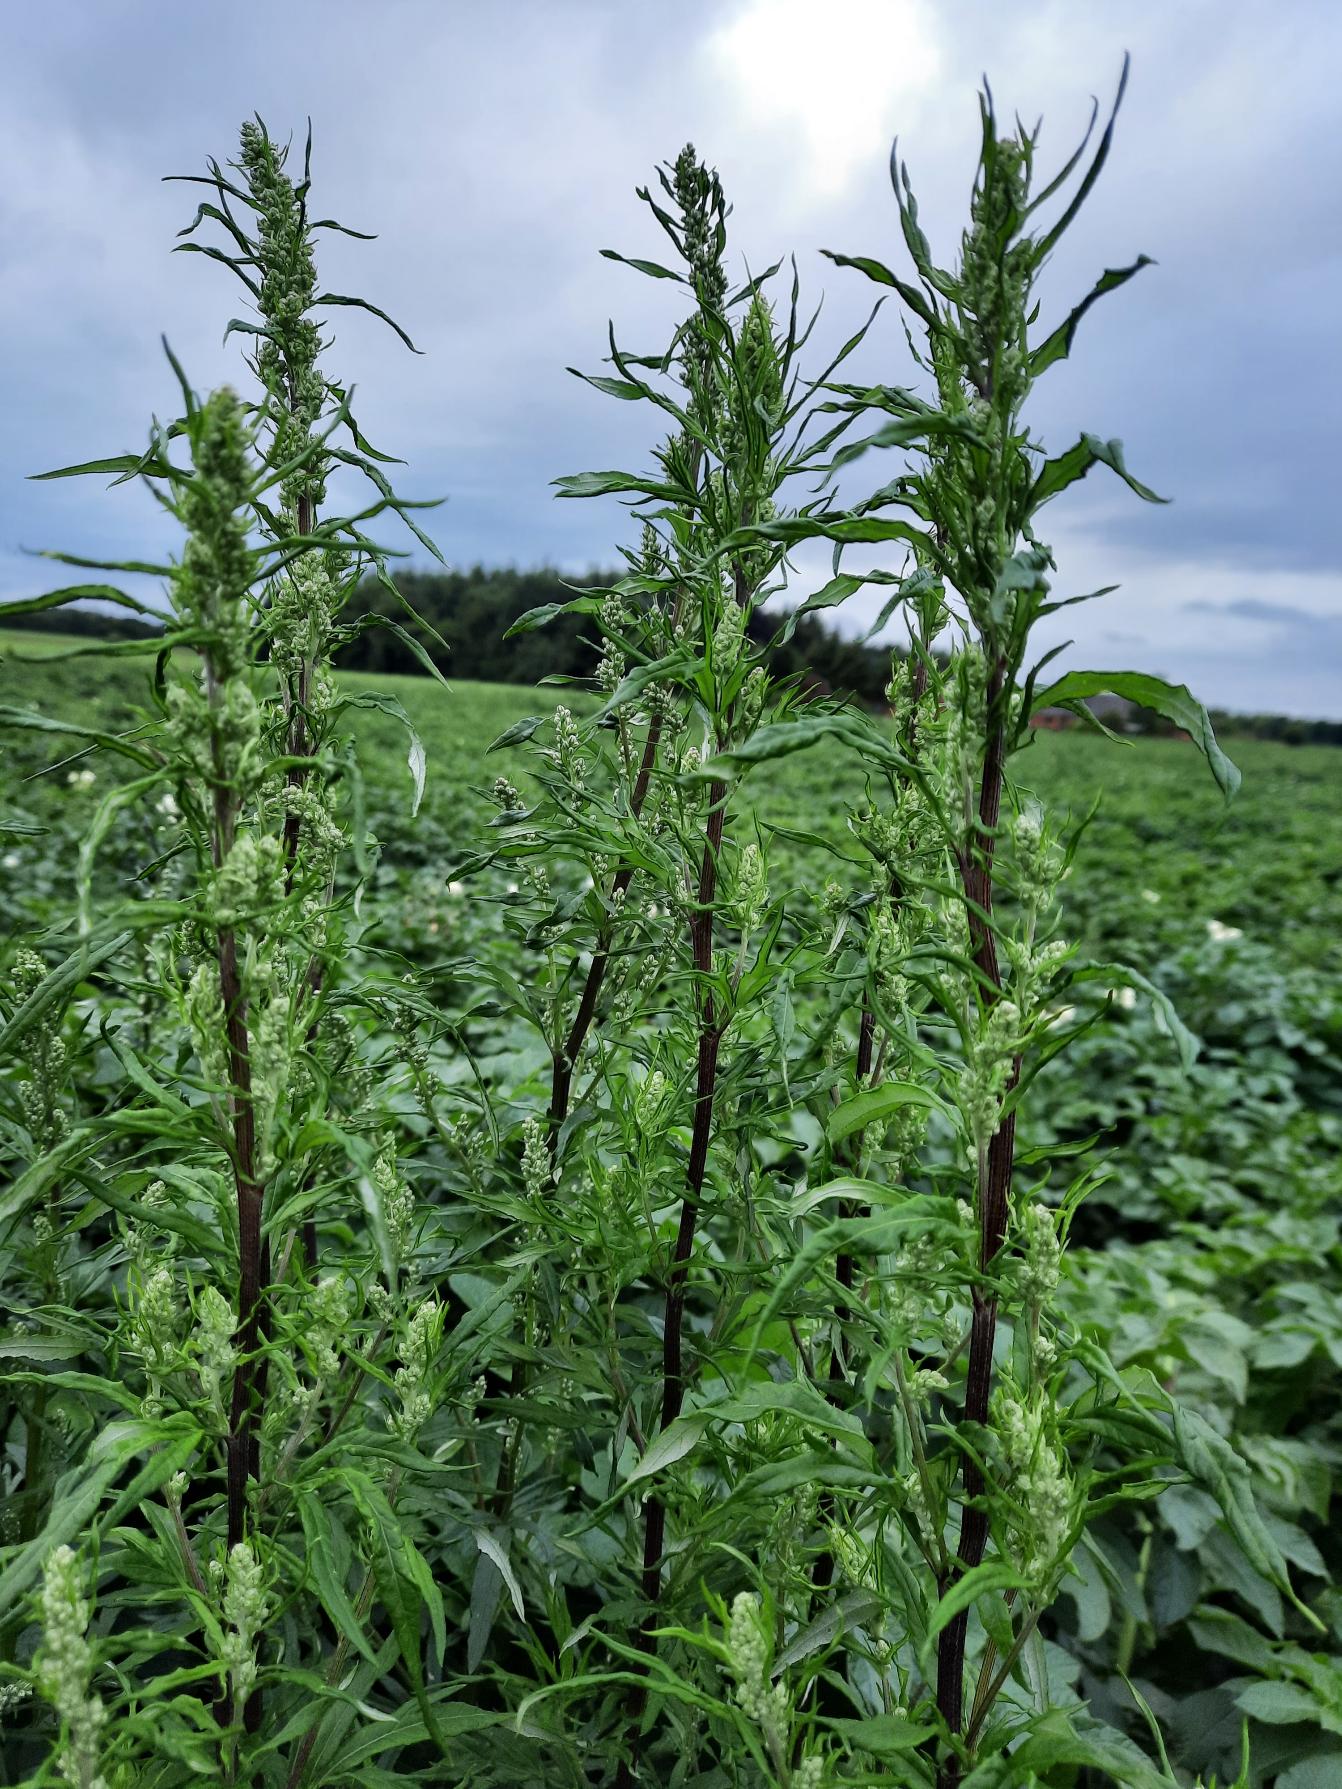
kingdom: Plantae
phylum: Tracheophyta
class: Magnoliopsida
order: Asterales
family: Asteraceae
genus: Artemisia
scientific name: Artemisia vulgaris
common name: Grå-bynke
